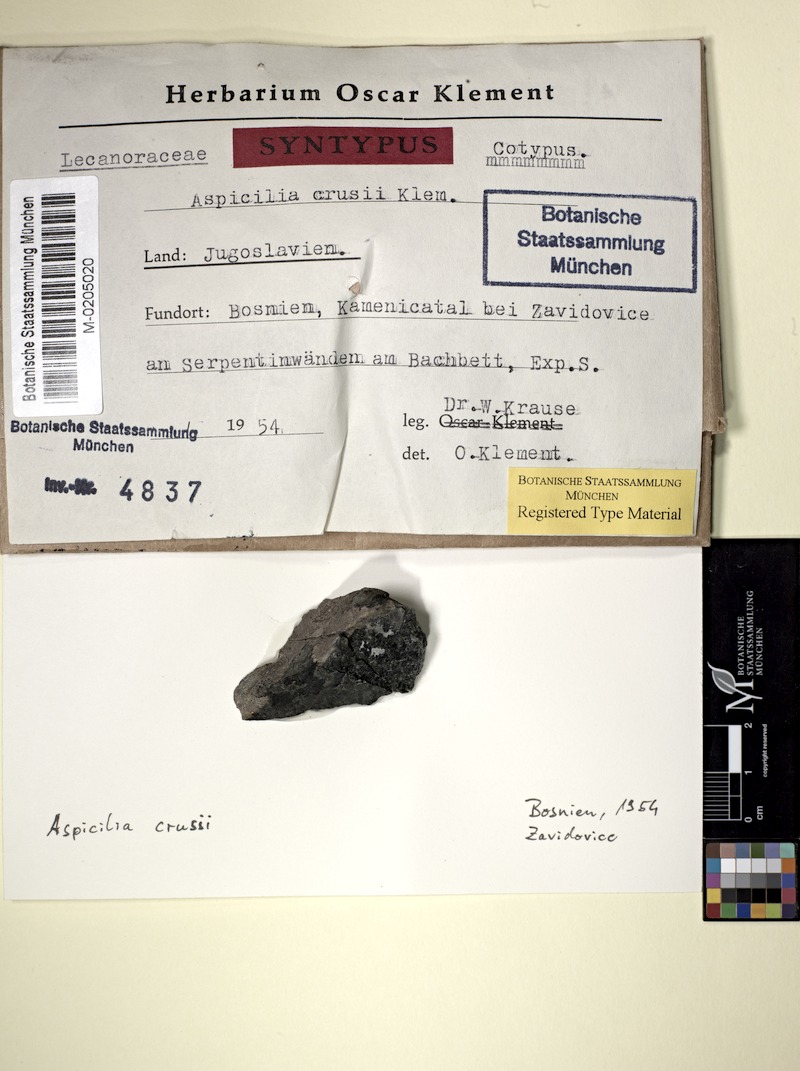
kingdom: Fungi
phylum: Ascomycota
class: Lecanoromycetes
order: Pertusariales
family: Megasporaceae
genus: Aspicilia
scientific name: Aspicilia
